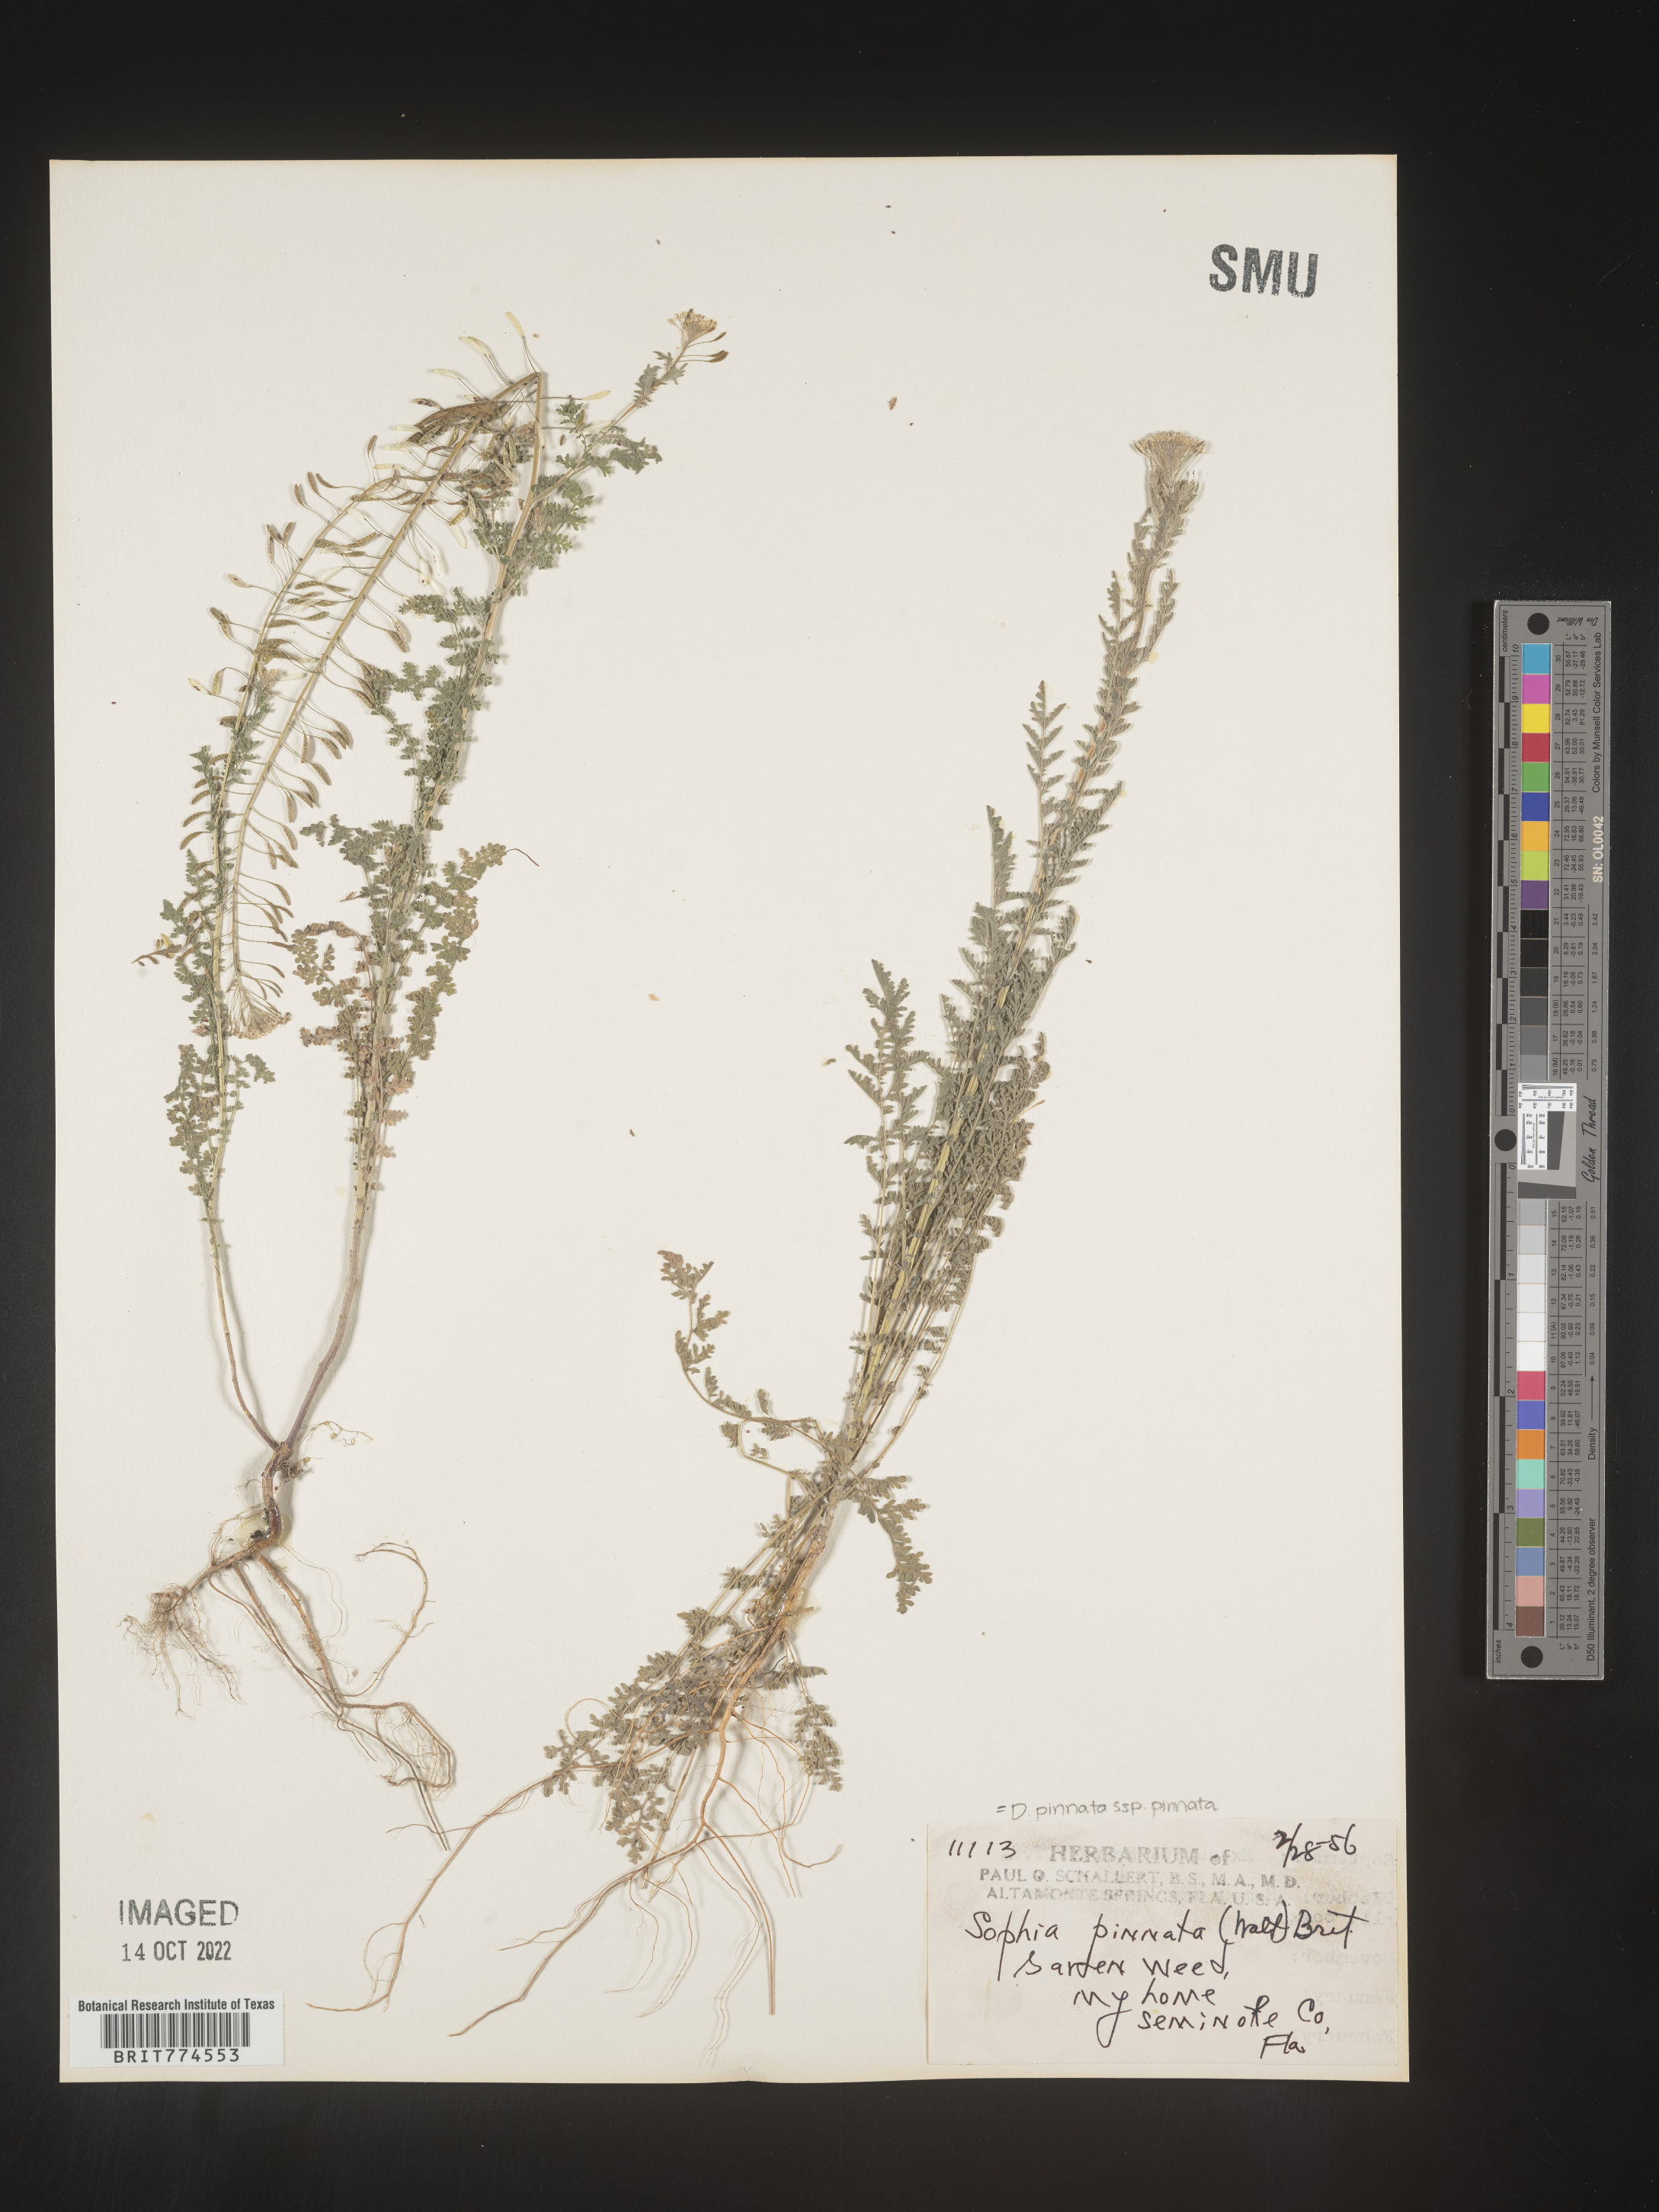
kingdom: Plantae
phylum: Tracheophyta
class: Magnoliopsida
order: Brassicales
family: Brassicaceae
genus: Descurainia
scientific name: Descurainia pinnata
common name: Western tansy mustard
